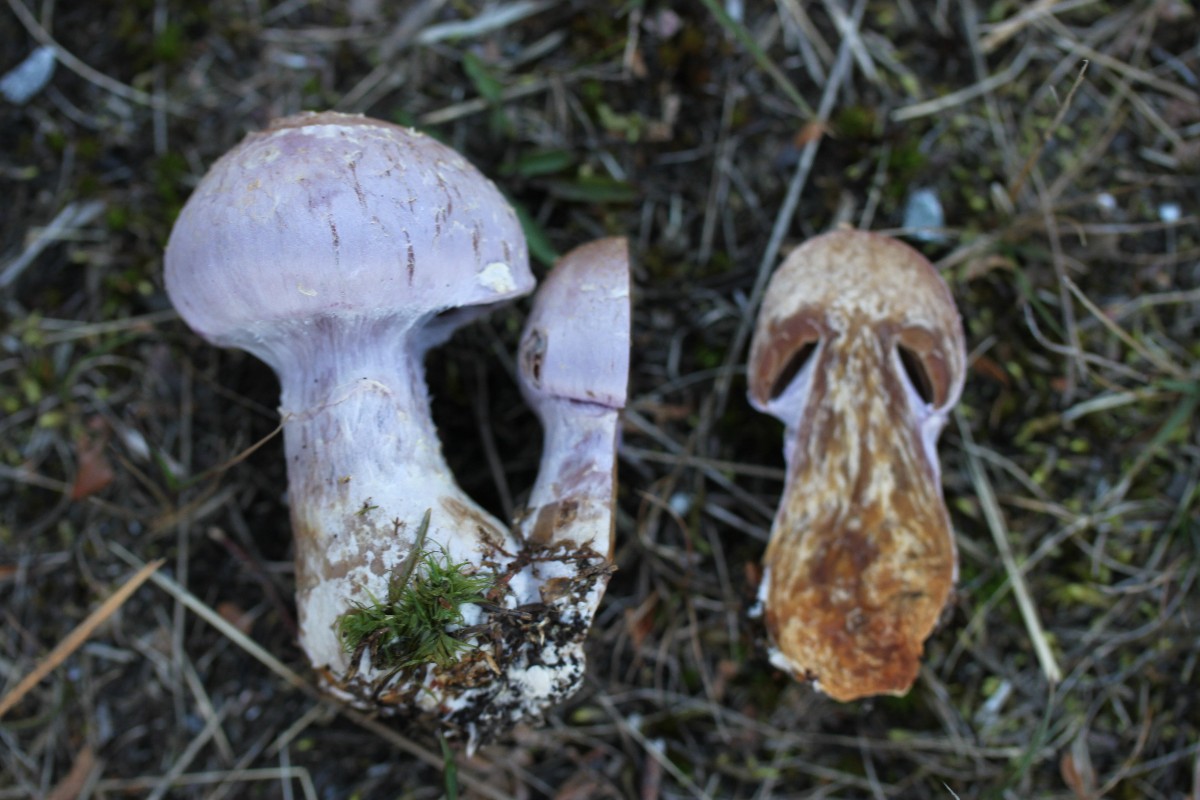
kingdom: Fungi
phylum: Basidiomycota
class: Agaricomycetes
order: Agaricales
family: Cortinariaceae
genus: Cortinarius
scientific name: Cortinarius traganus
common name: safrankødet slørhat
